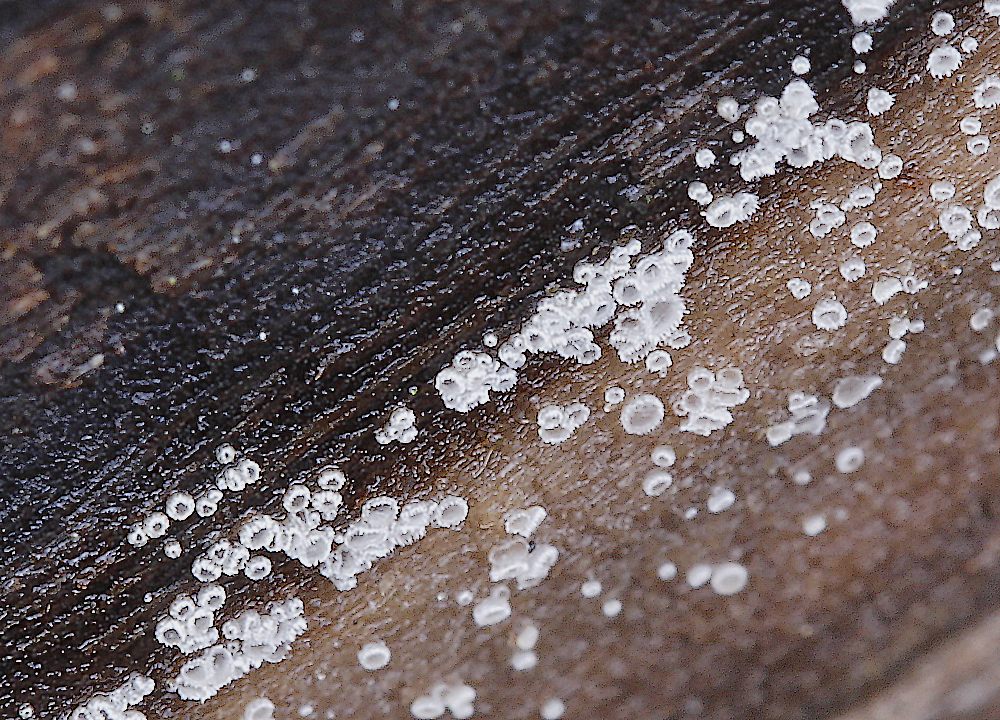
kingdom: Fungi
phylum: Ascomycota
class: Leotiomycetes
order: Helotiales
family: Hyaloscyphaceae
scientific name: Hyaloscyphaceae
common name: frynseskivefamilien
